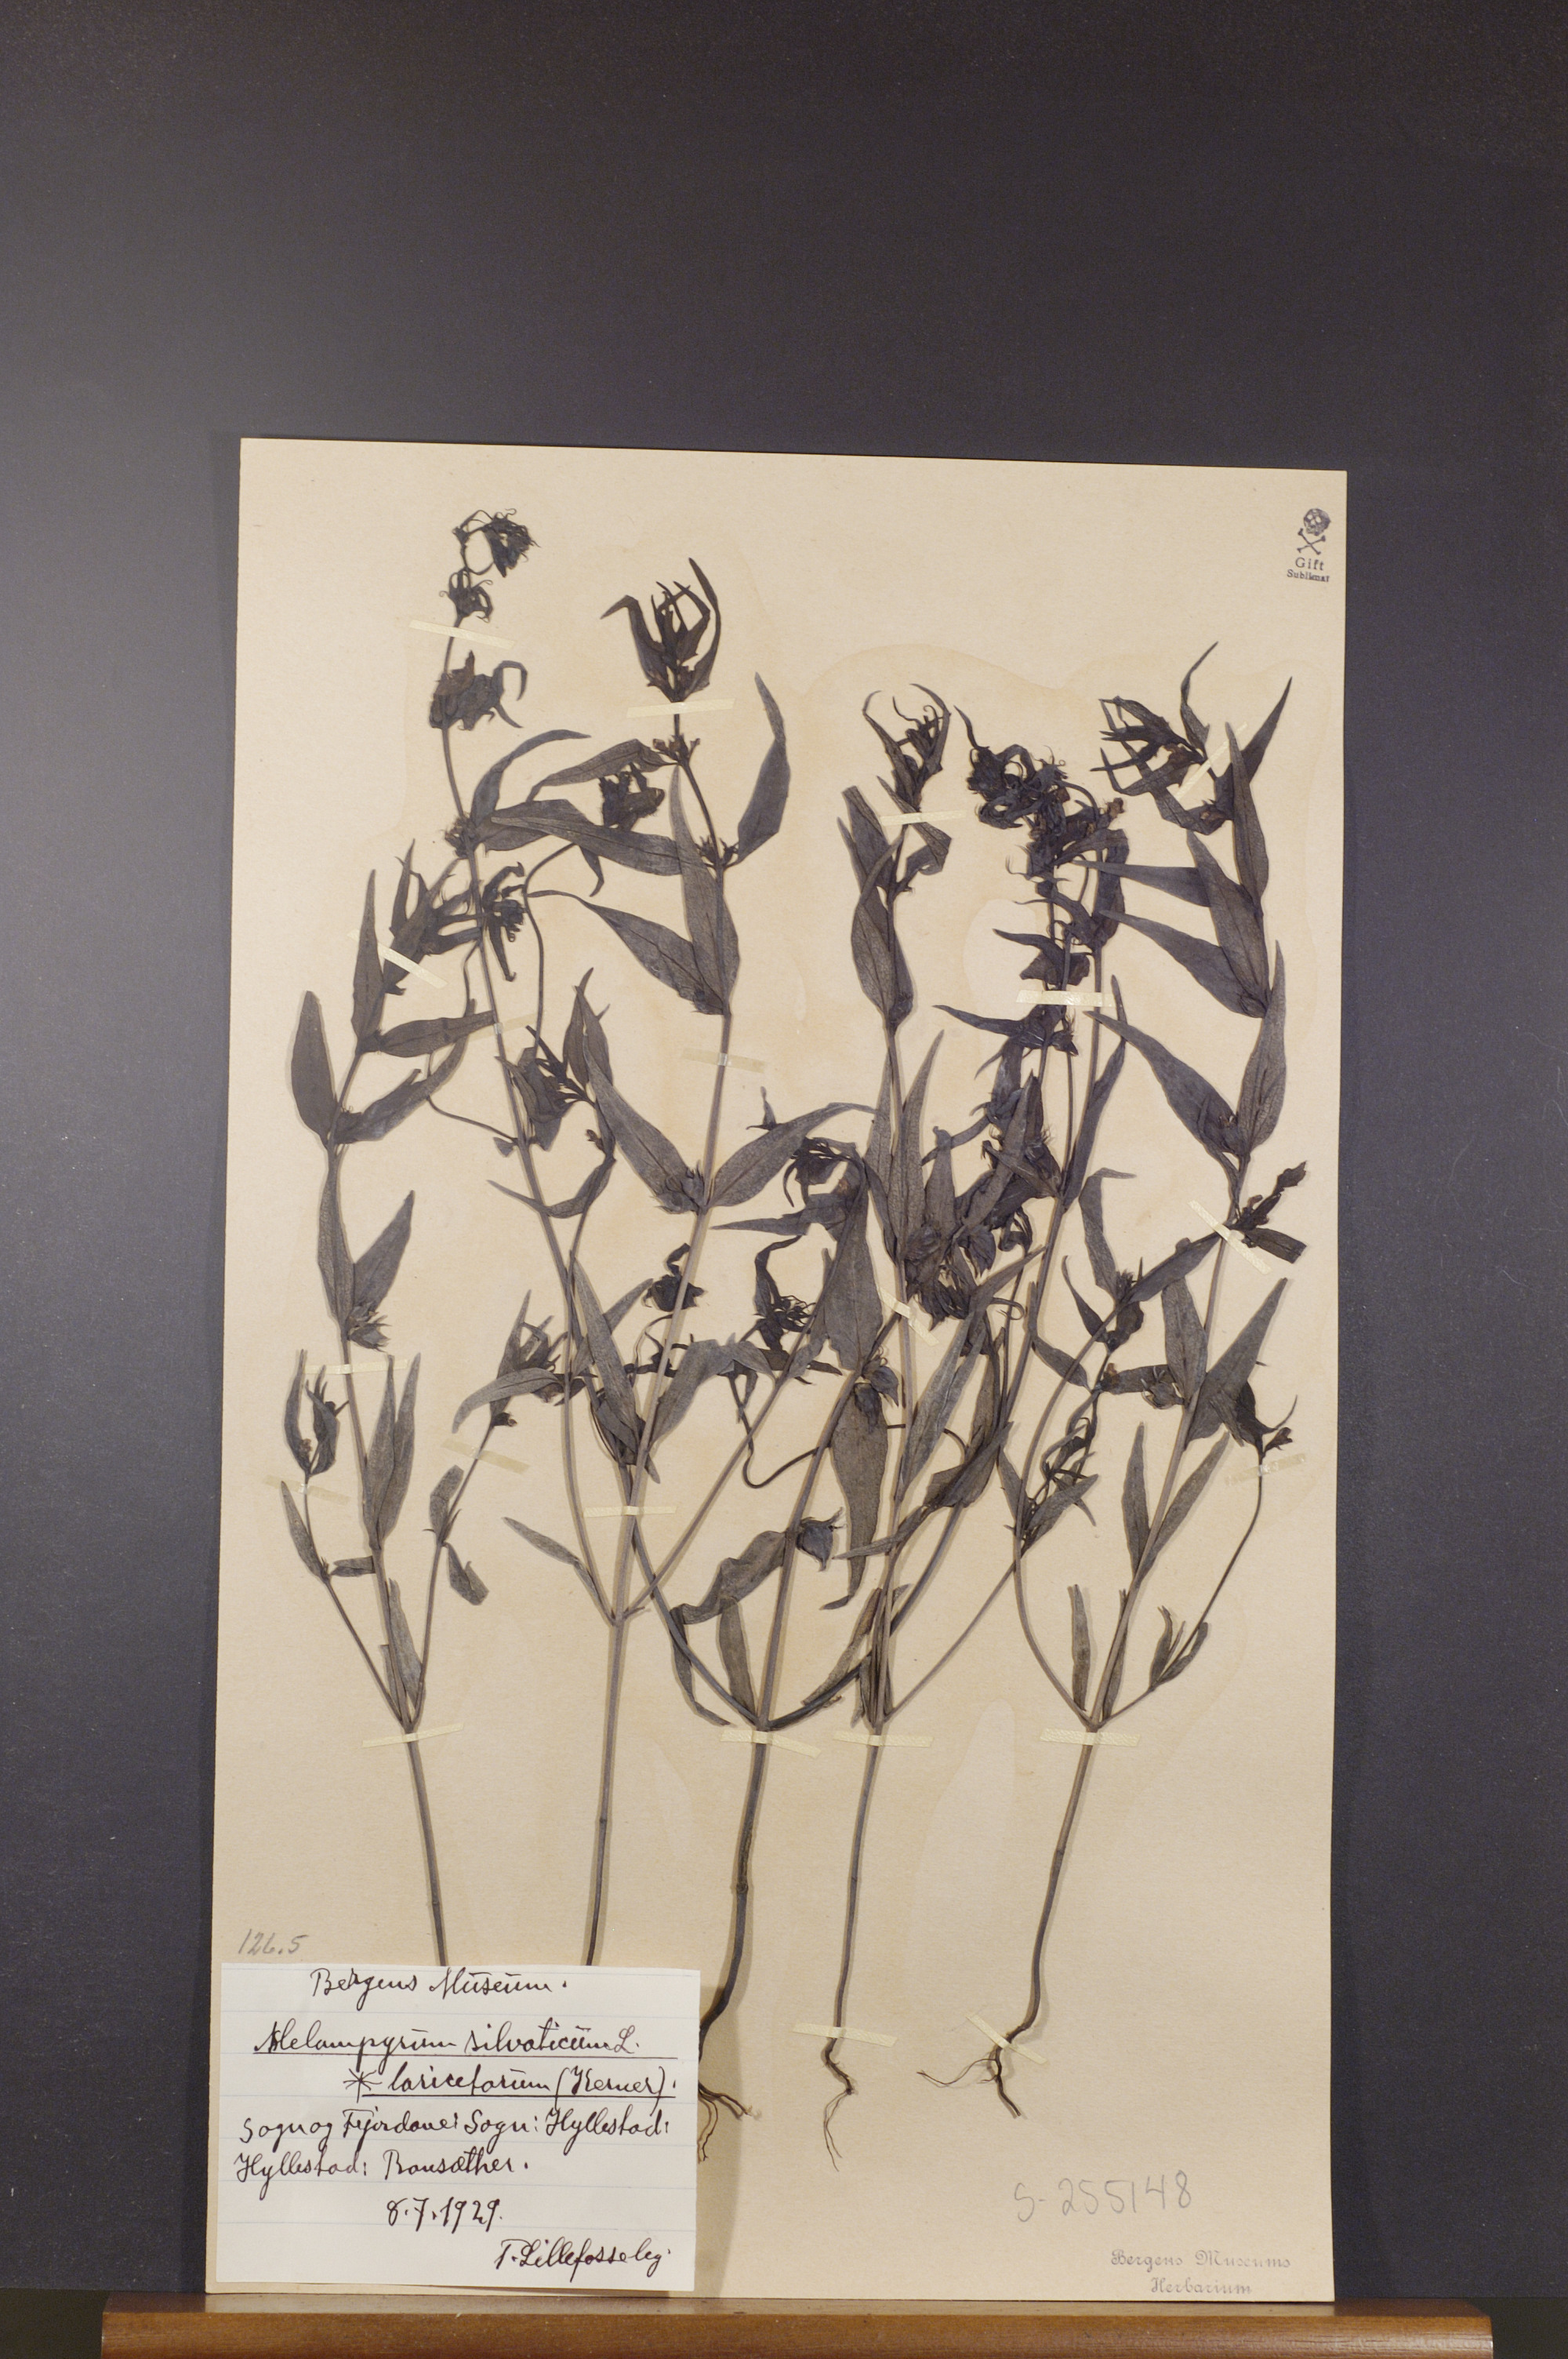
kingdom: Plantae
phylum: Tracheophyta
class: Magnoliopsida
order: Lamiales
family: Orobanchaceae
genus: Melampyrum
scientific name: Melampyrum sylvaticum
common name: Small cow-wheat
